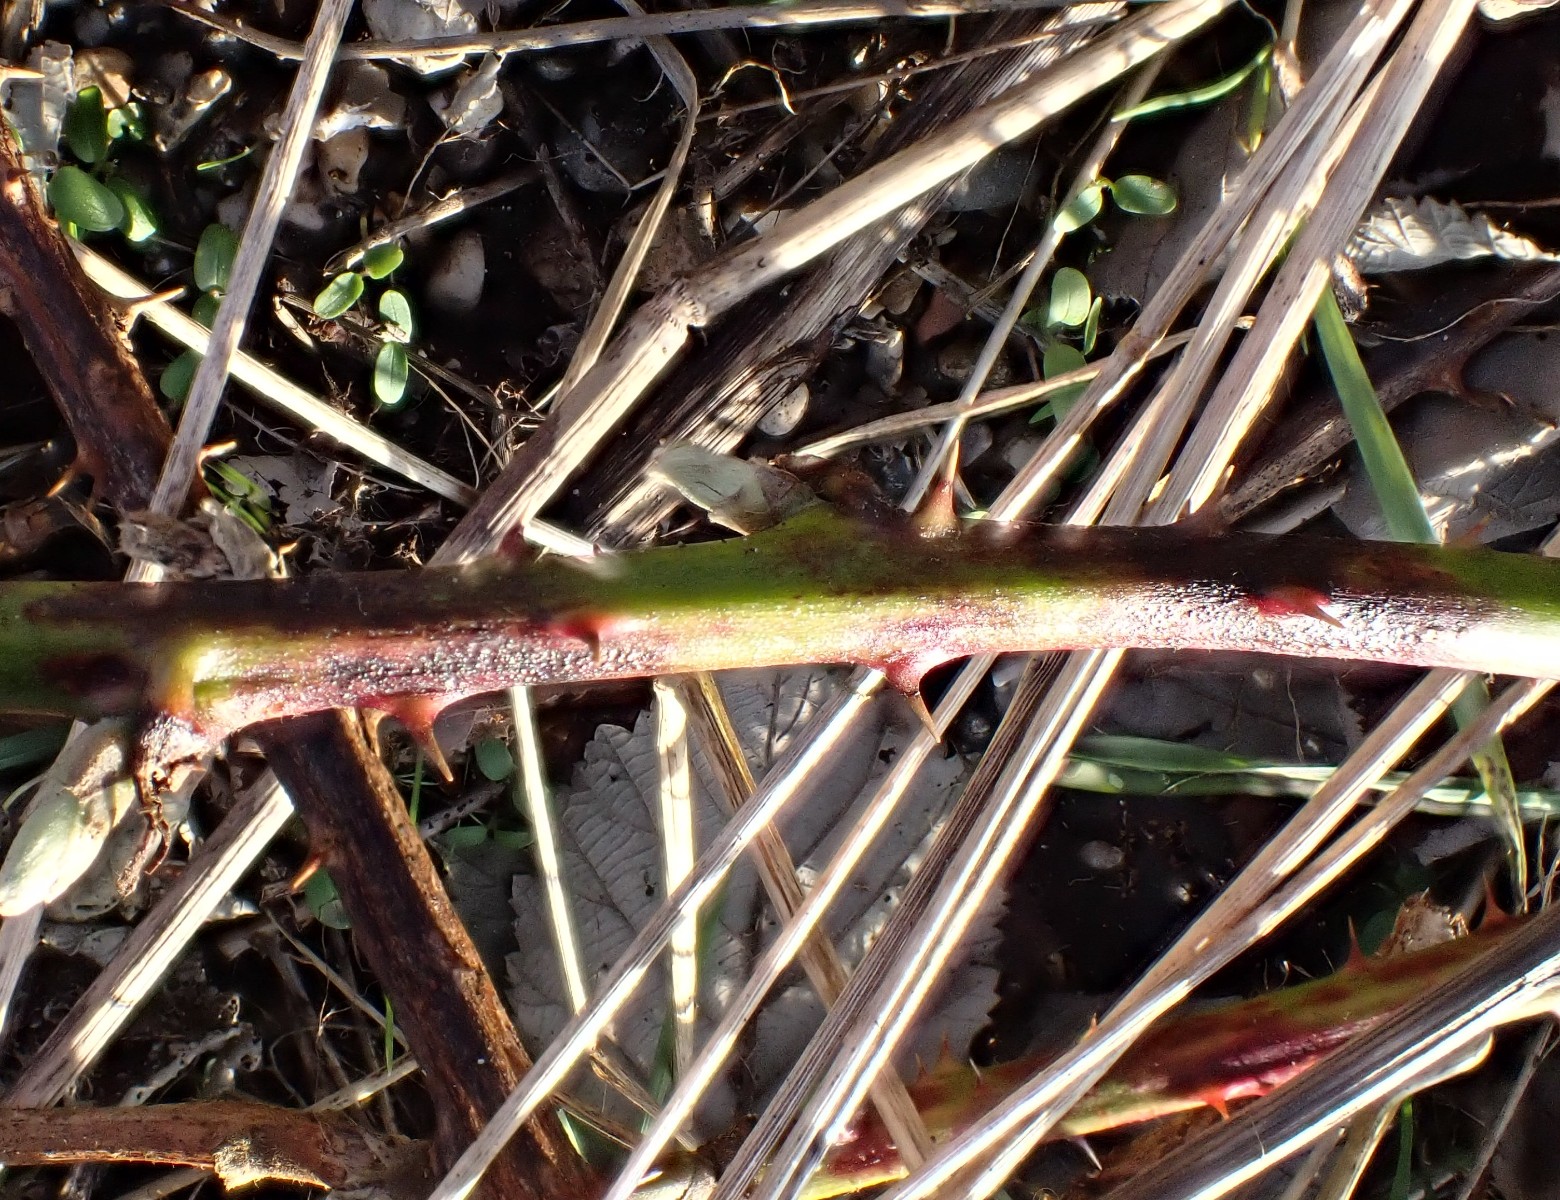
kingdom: Fungi
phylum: Ascomycota
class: Dothideomycetes
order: Capnodiales
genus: Septocyta
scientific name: Septocyta ruborum
